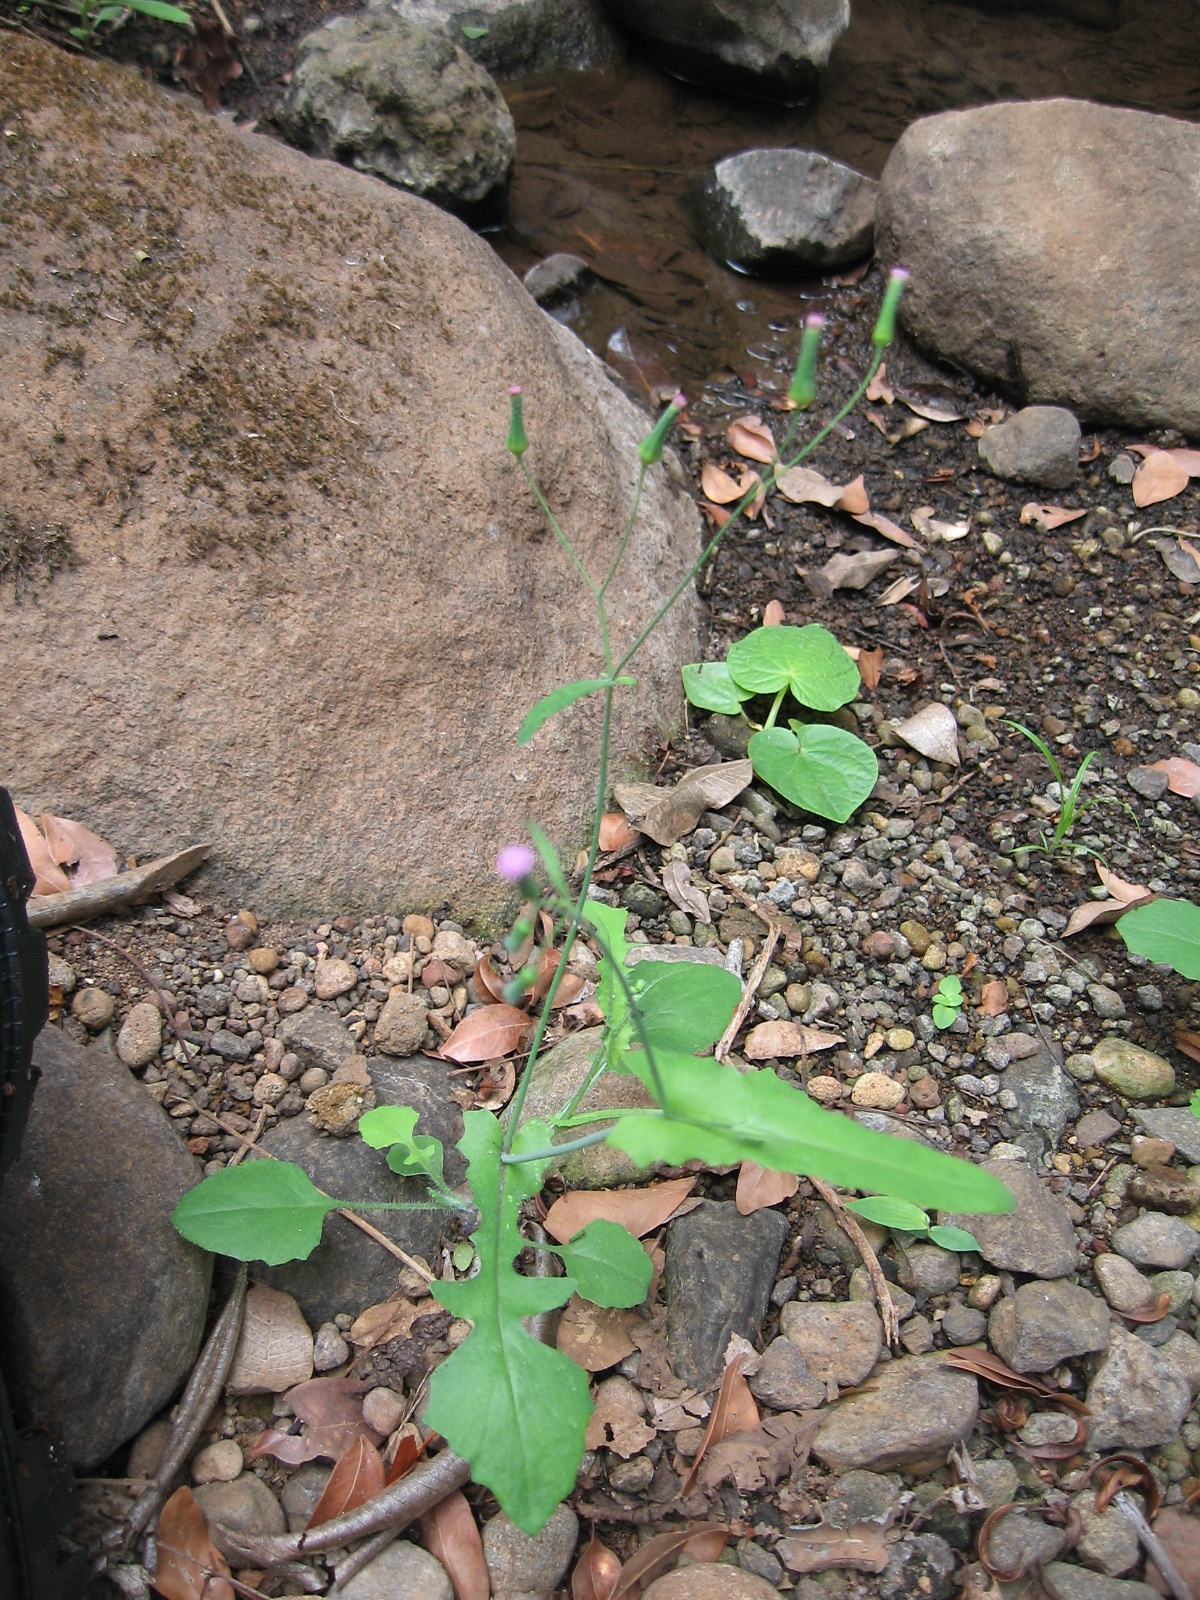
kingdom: Plantae
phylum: Tracheophyta
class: Magnoliopsida
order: Asterales
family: Asteraceae
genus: Emilia
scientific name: Emilia sonchifolia
